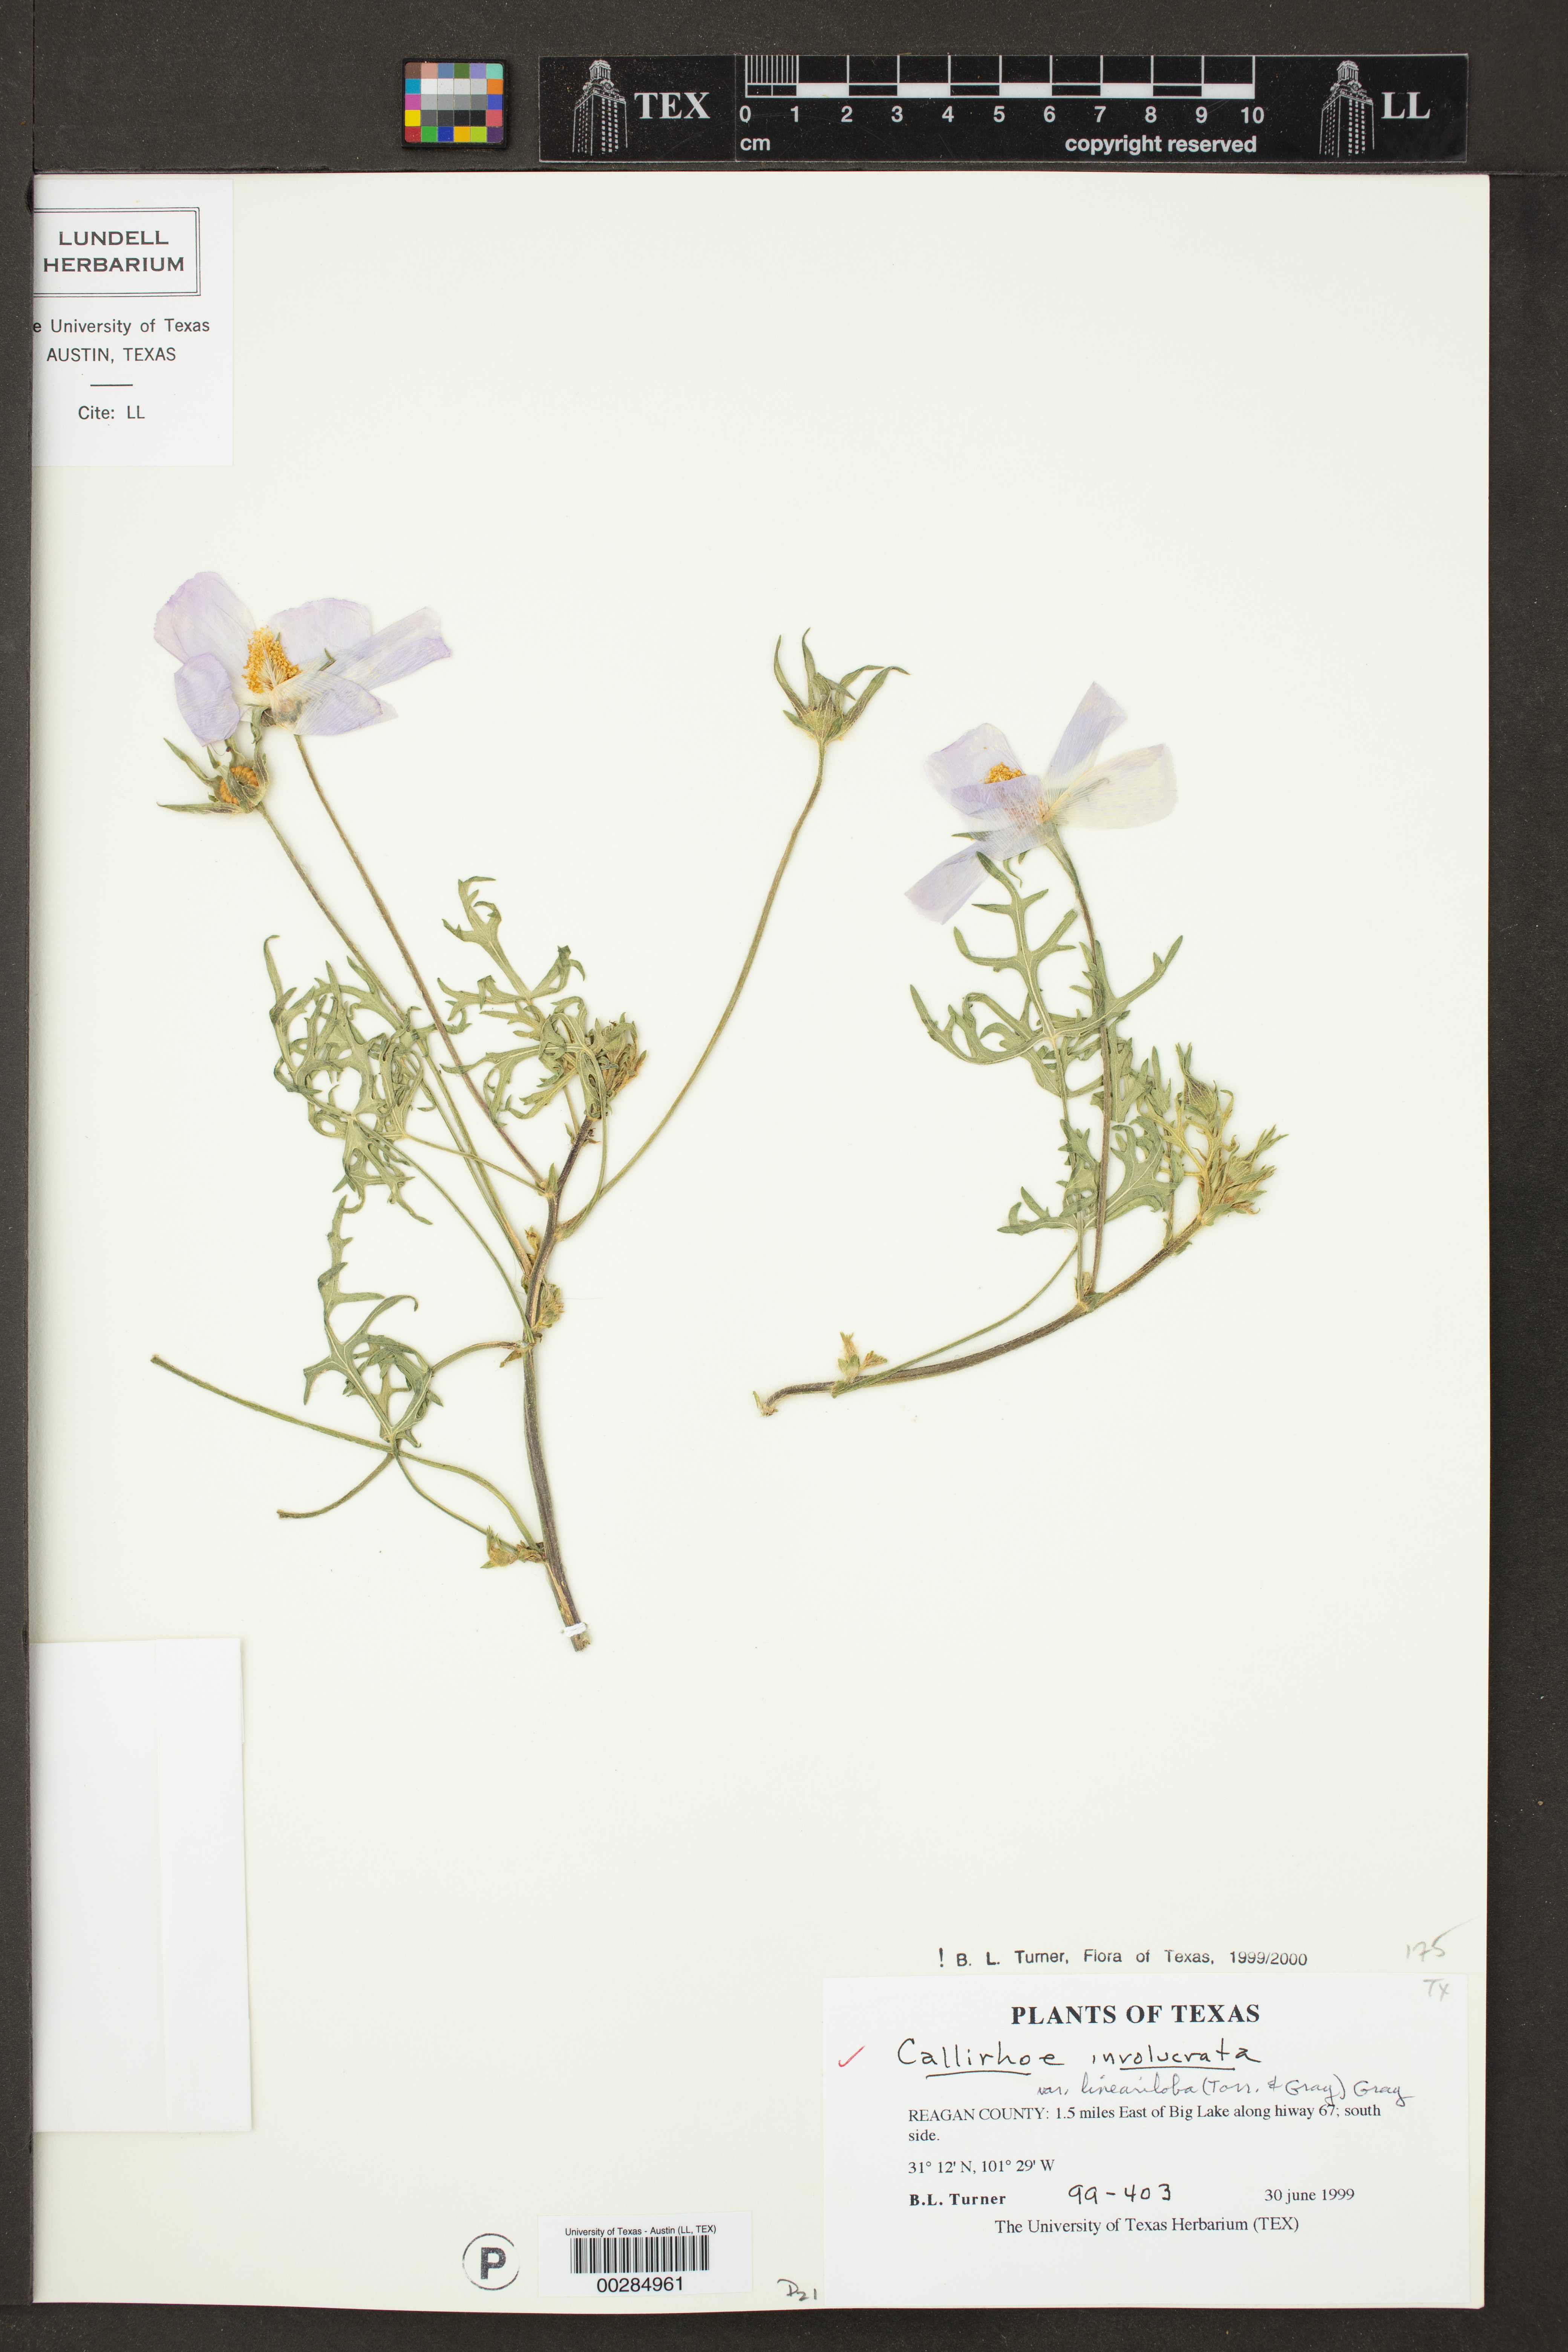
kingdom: Plantae
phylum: Tracheophyta
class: Magnoliopsida
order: Malvales
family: Malvaceae
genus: Callirhoe
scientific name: Callirhoe involucrata
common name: Purple poppy-mallow
